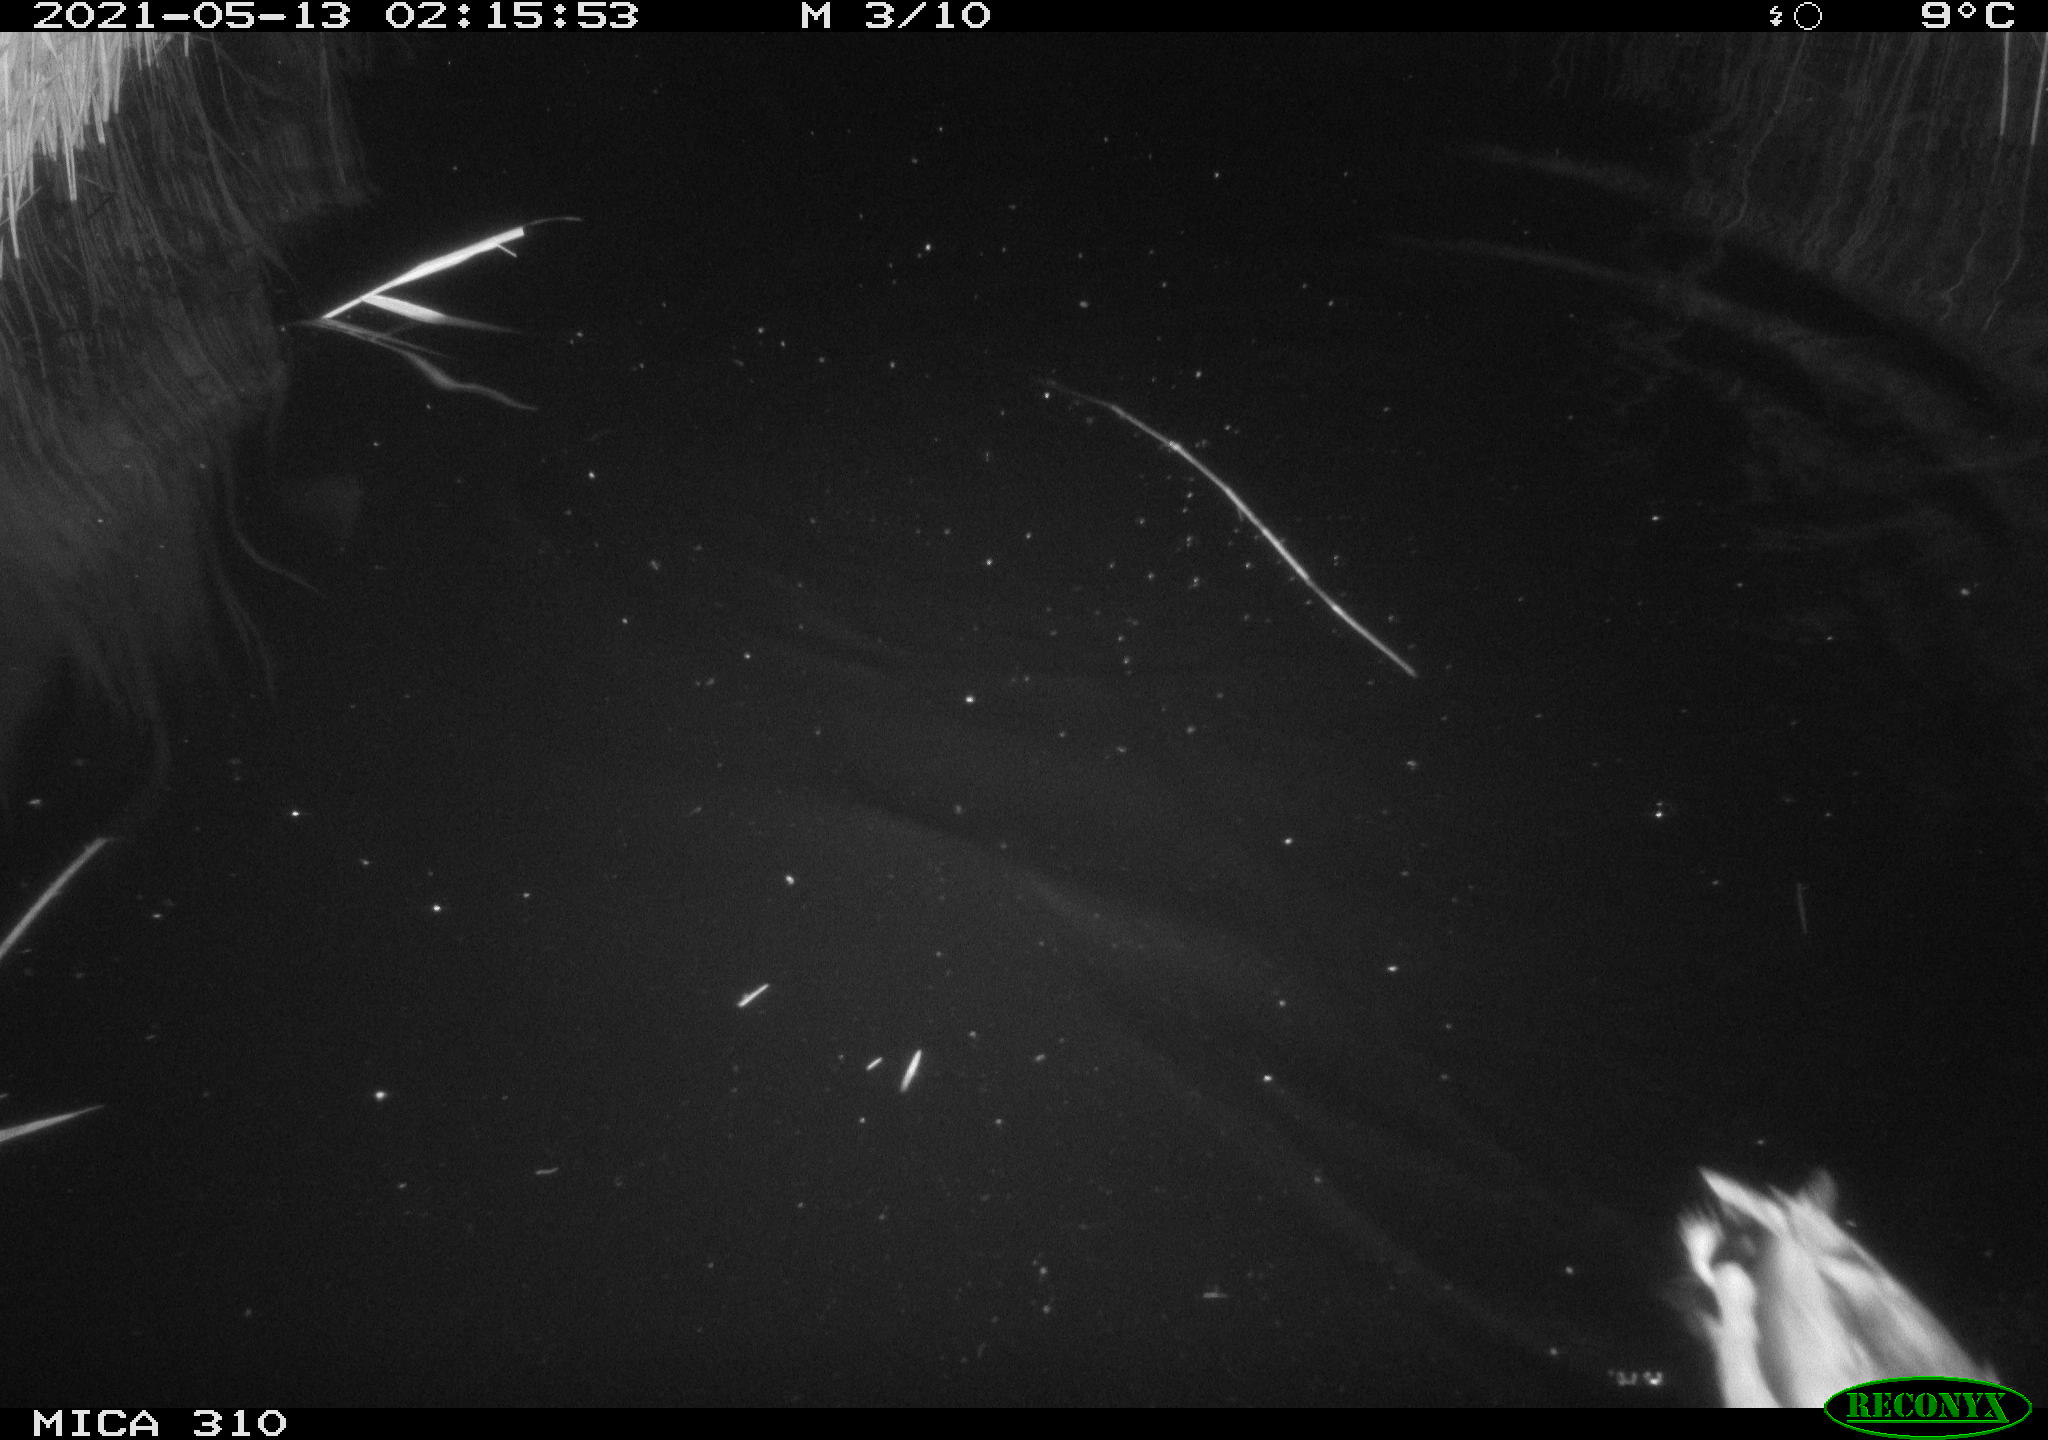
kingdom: Animalia
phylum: Chordata
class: Aves
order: Anseriformes
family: Anatidae
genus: Anas
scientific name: Anas platyrhynchos
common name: Mallard
